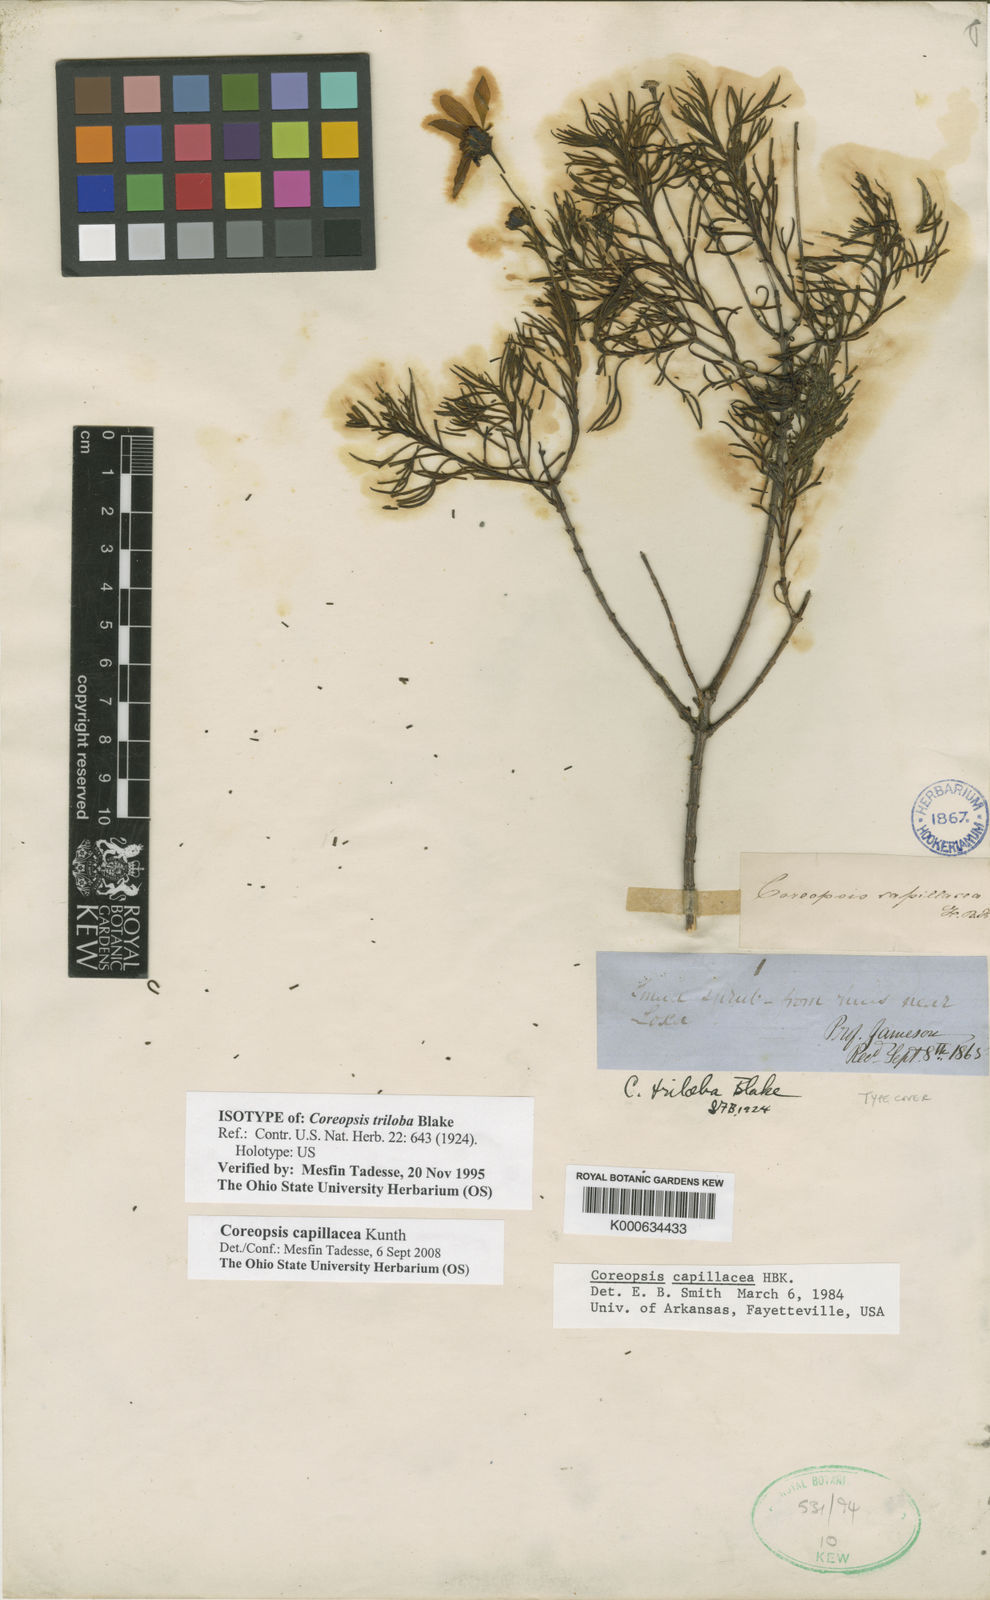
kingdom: Plantae
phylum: Tracheophyta
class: Magnoliopsida
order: Asterales
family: Asteraceae
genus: Coreopsis
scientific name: Coreopsis capillacea
